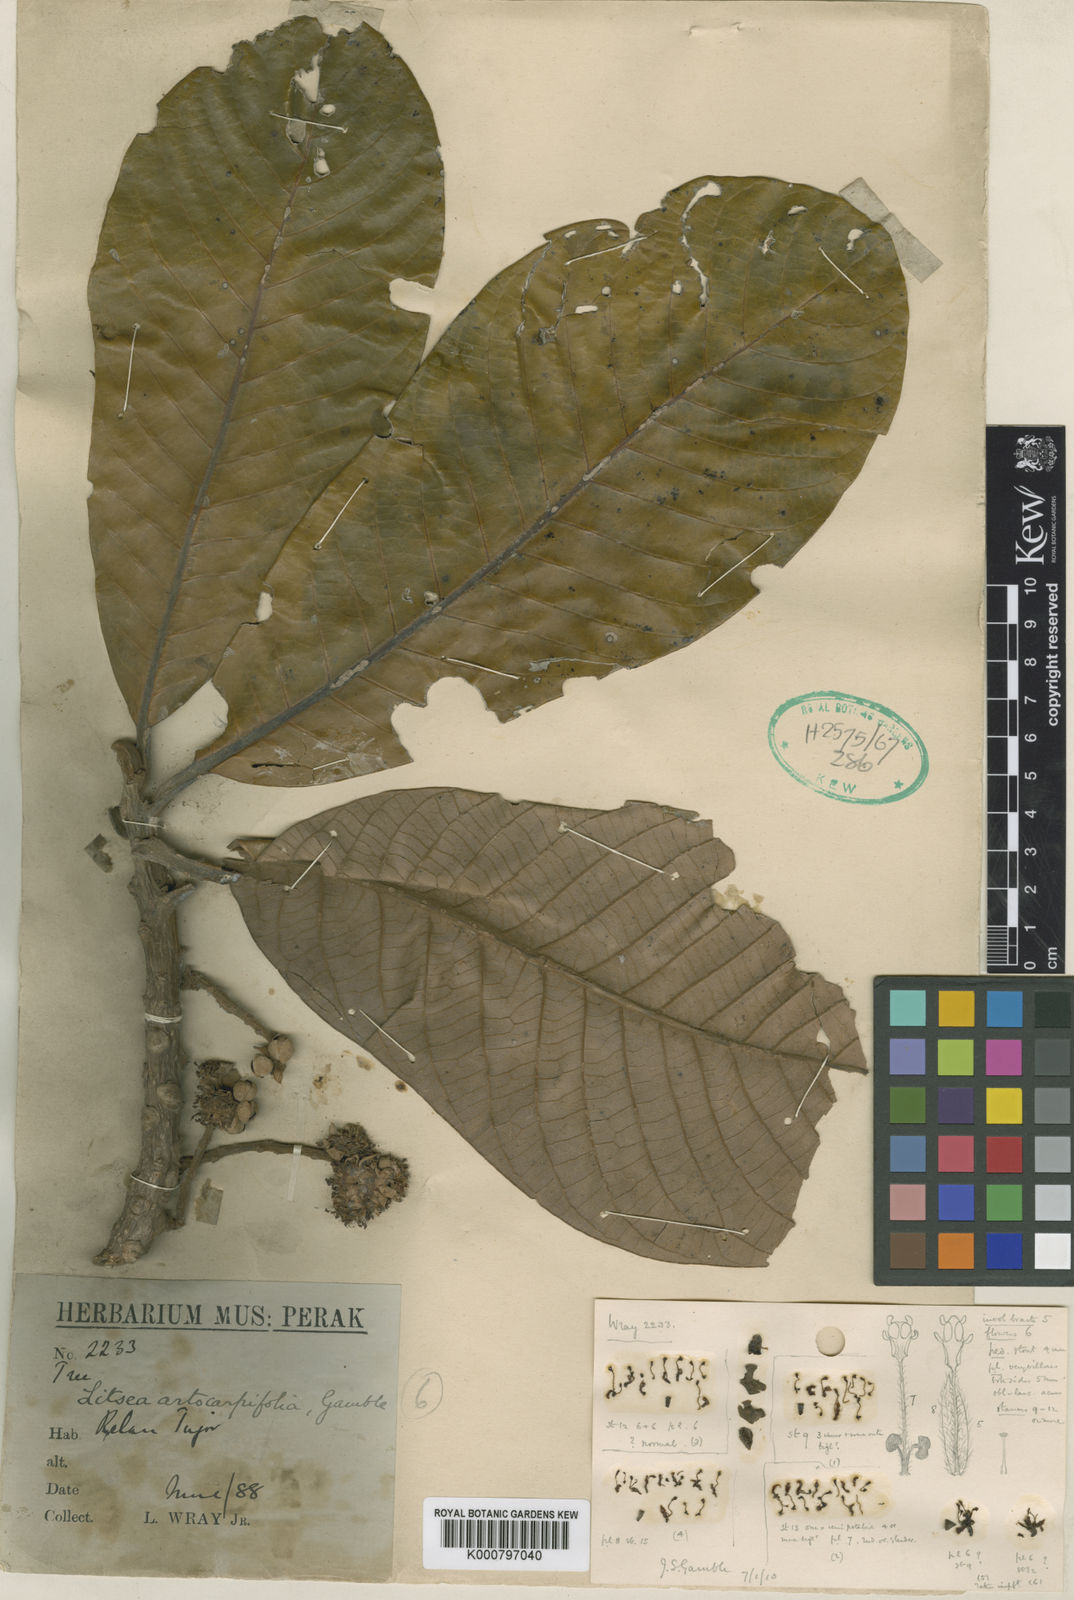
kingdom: Plantae
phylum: Tracheophyta
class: Magnoliopsida
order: Laurales
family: Lauraceae
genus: Litsea
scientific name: Litsea artocarpifolia
